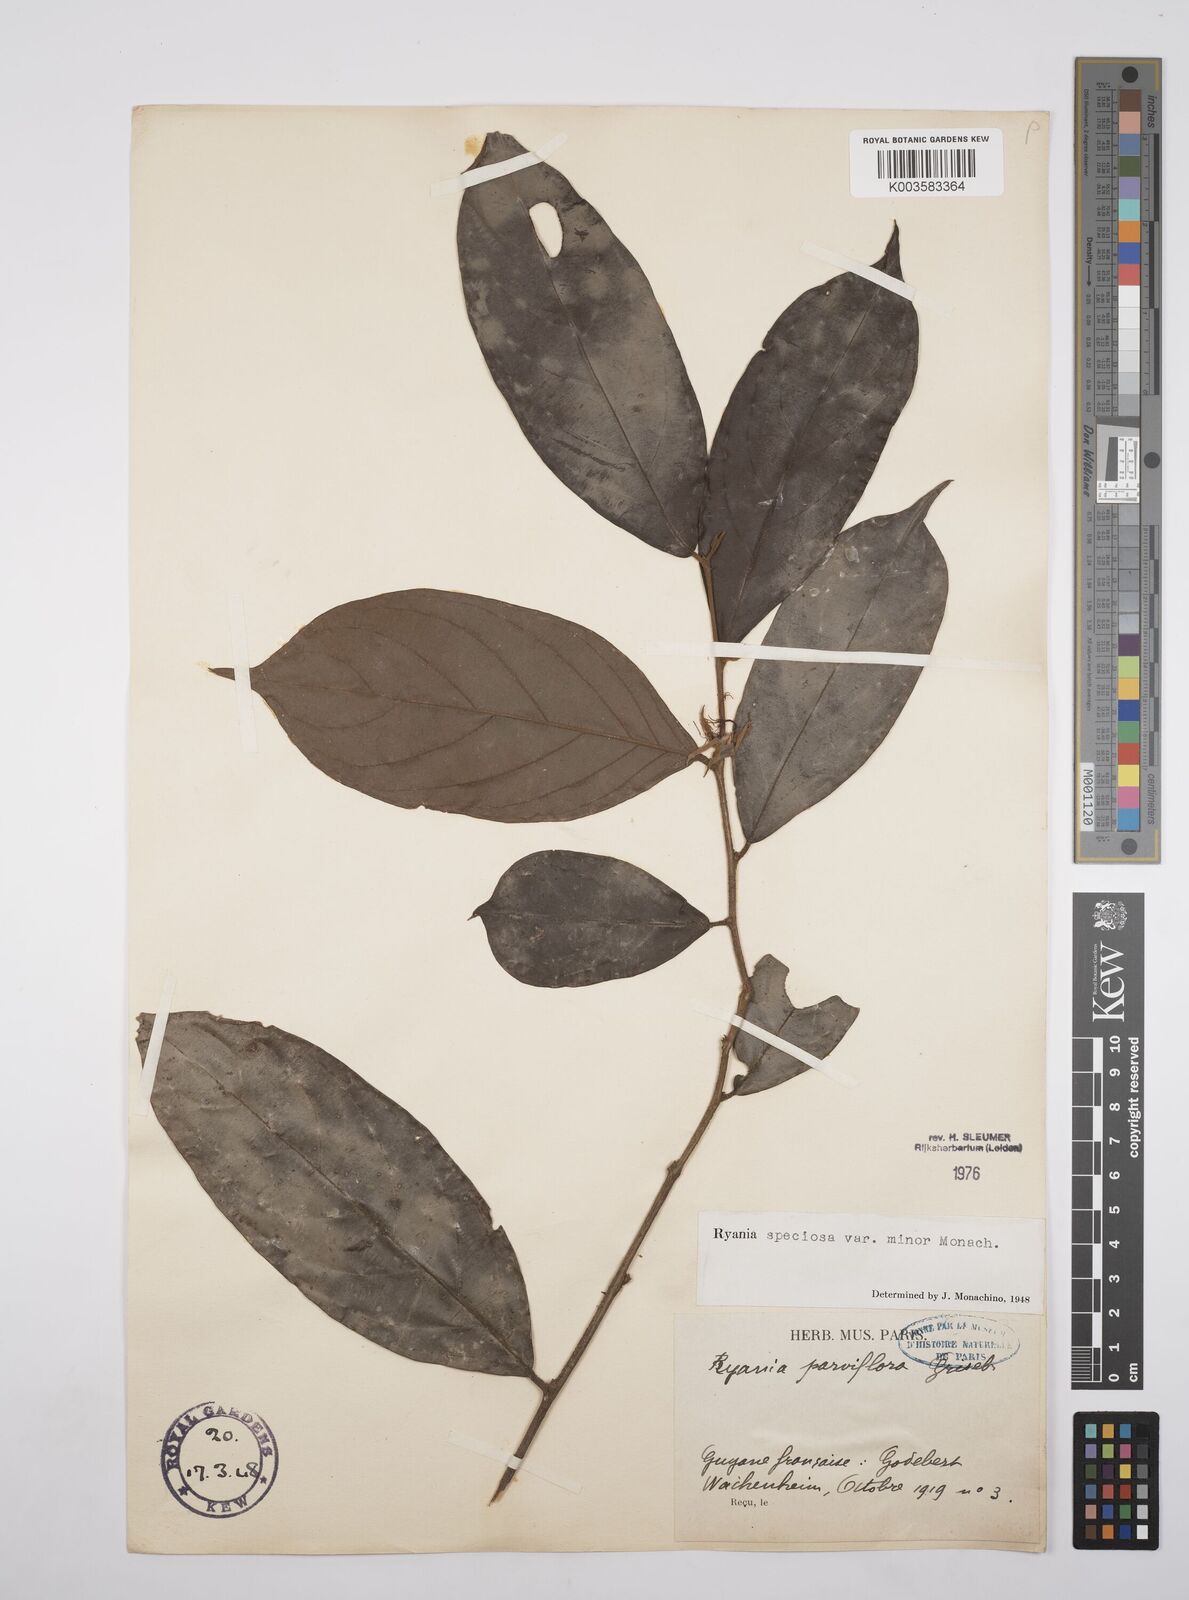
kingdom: Plantae
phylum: Tracheophyta
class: Magnoliopsida
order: Malpighiales
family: Salicaceae
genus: Ryania
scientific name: Ryania speciosa
